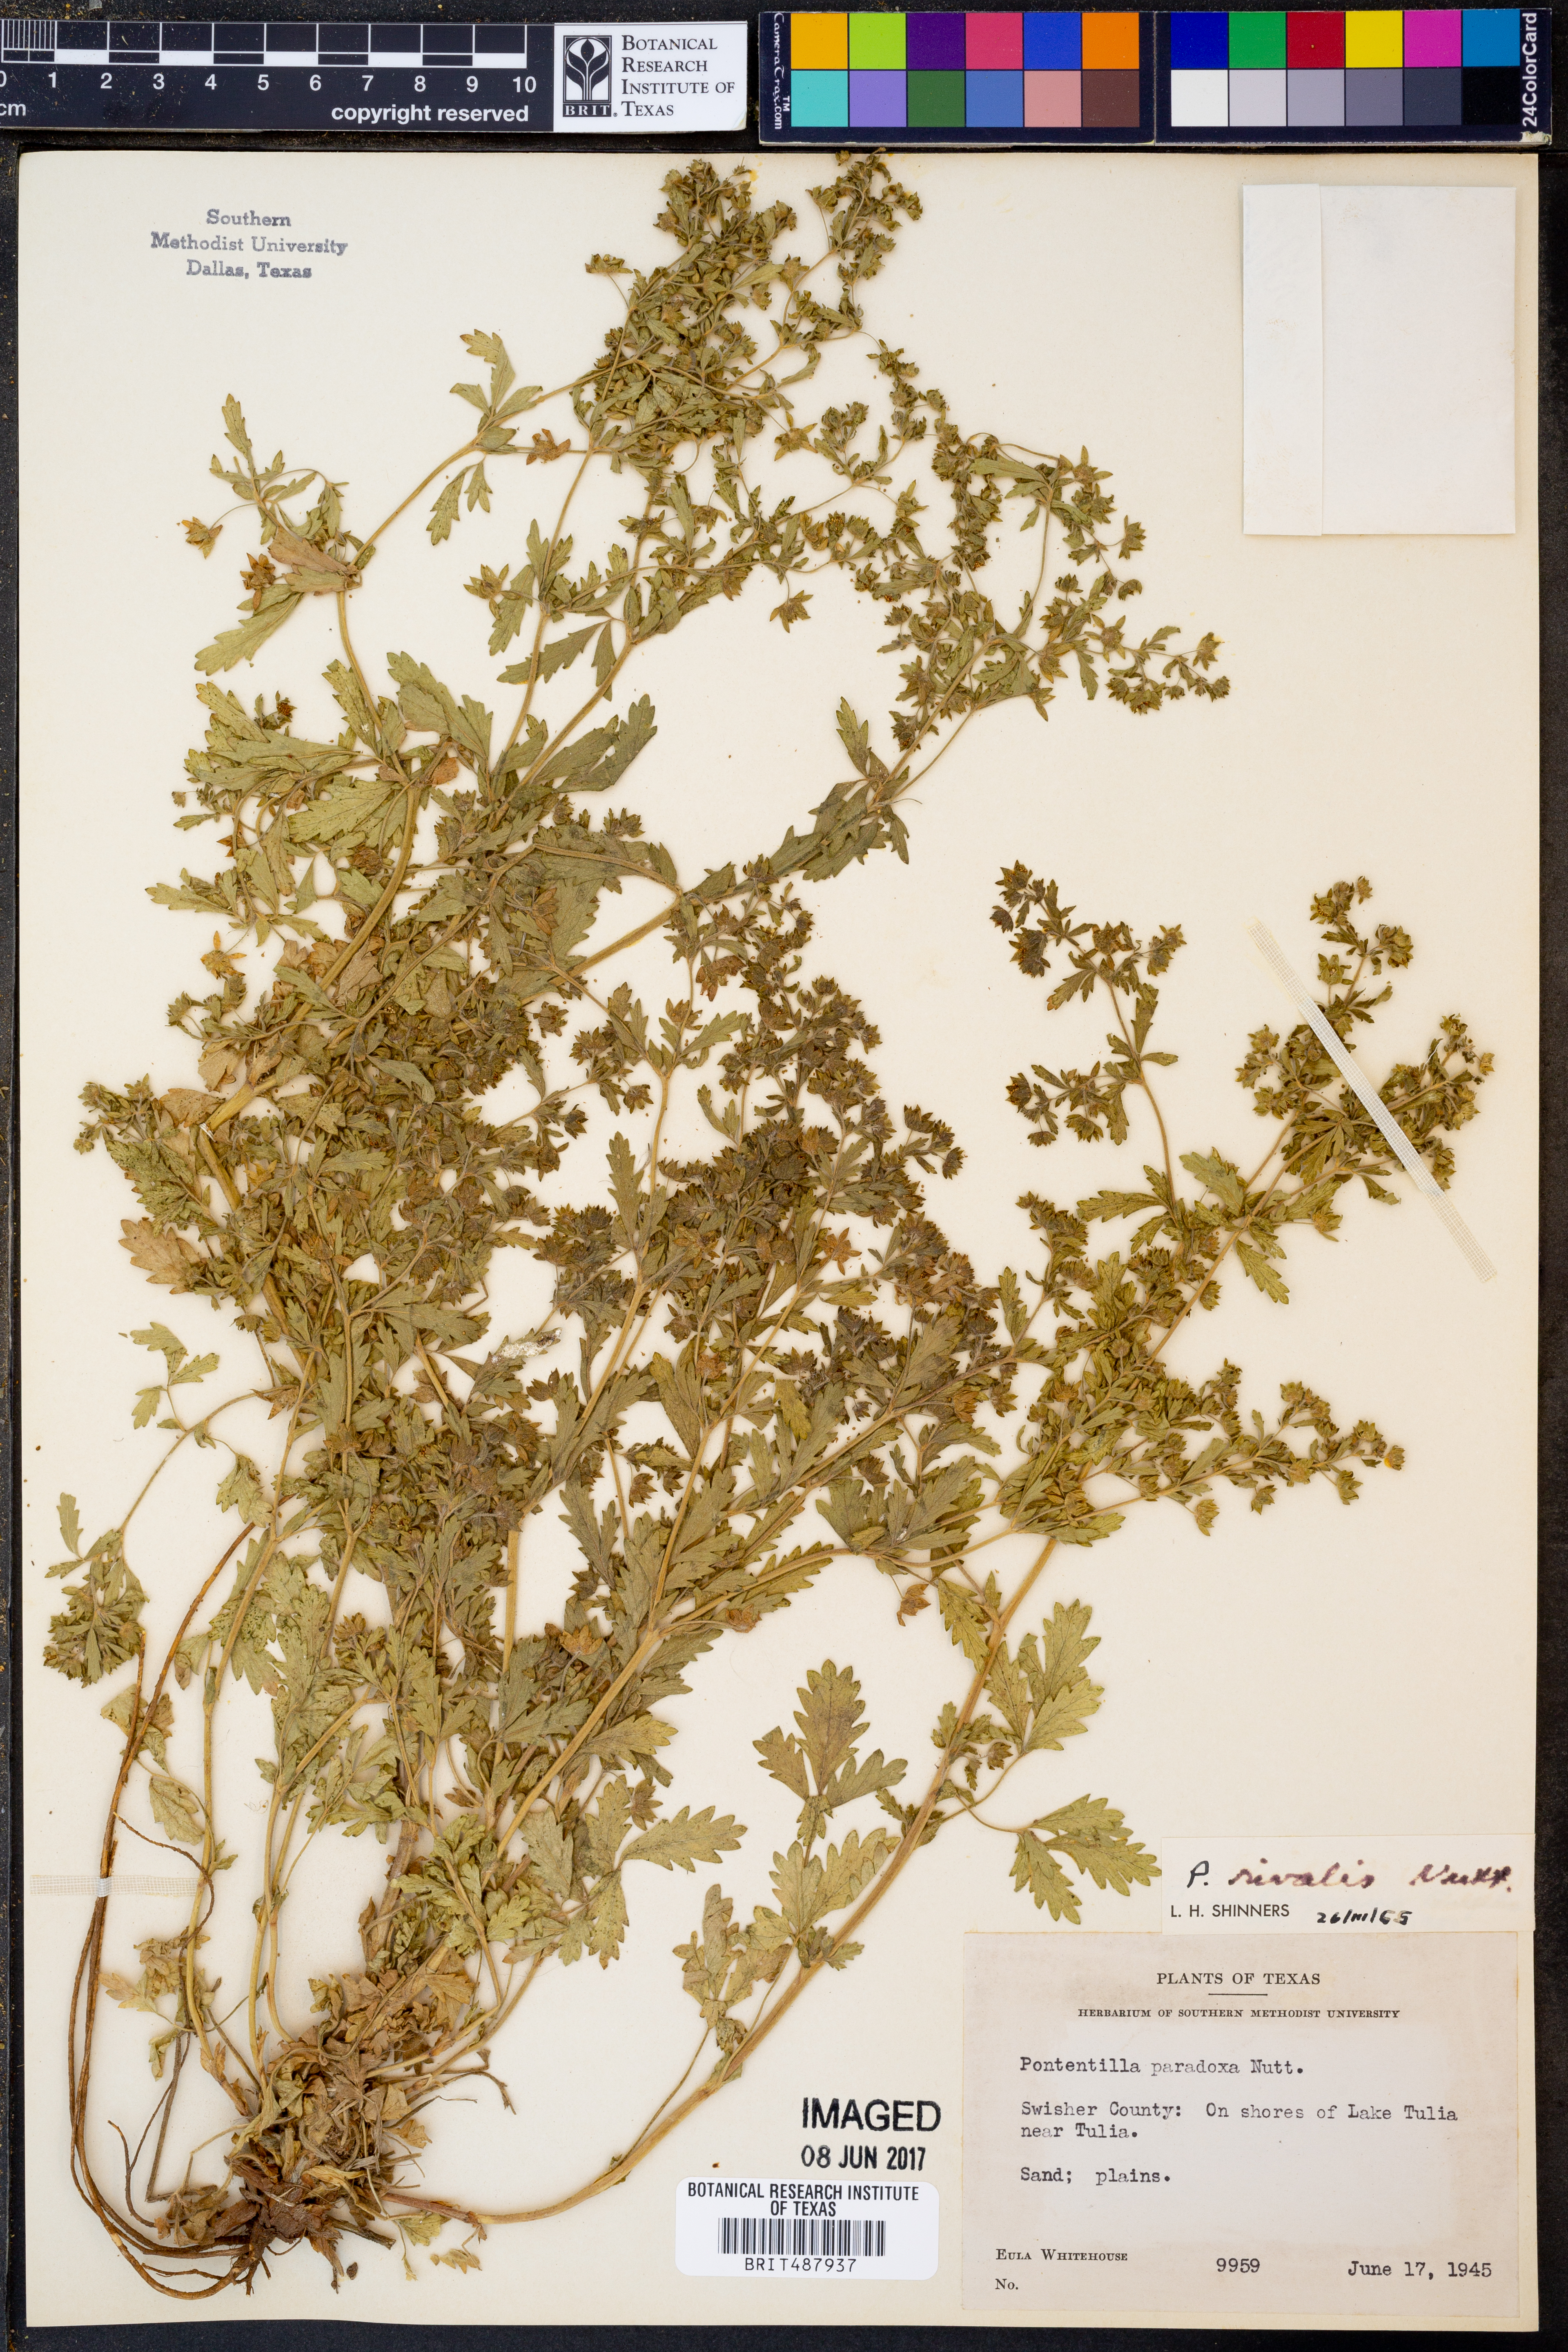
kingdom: Plantae
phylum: Tracheophyta
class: Magnoliopsida
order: Rosales
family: Rosaceae
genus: Potentilla
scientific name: Potentilla rivalis
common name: Brook cinquefoil
